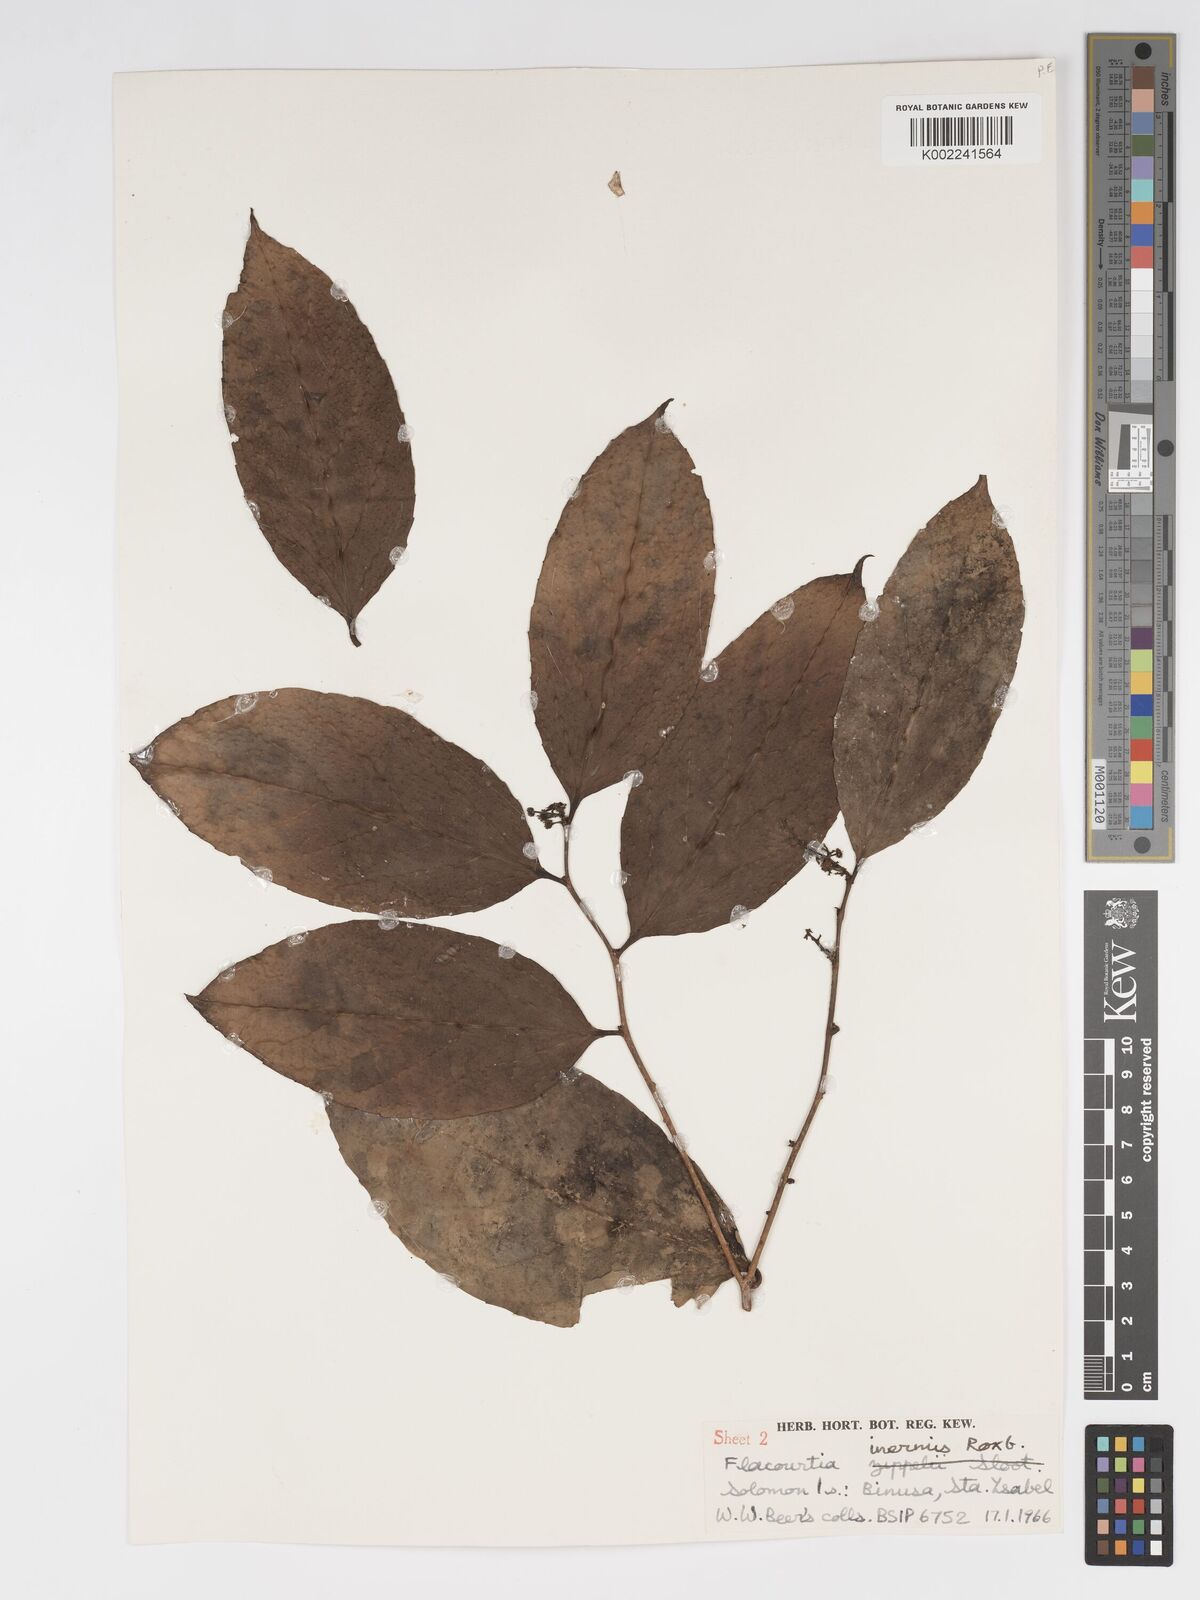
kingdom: Plantae
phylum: Tracheophyta
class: Magnoliopsida
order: Malpighiales
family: Salicaceae
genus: Flacourtia
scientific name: Flacourtia inermis
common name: Plum-of-martinique
